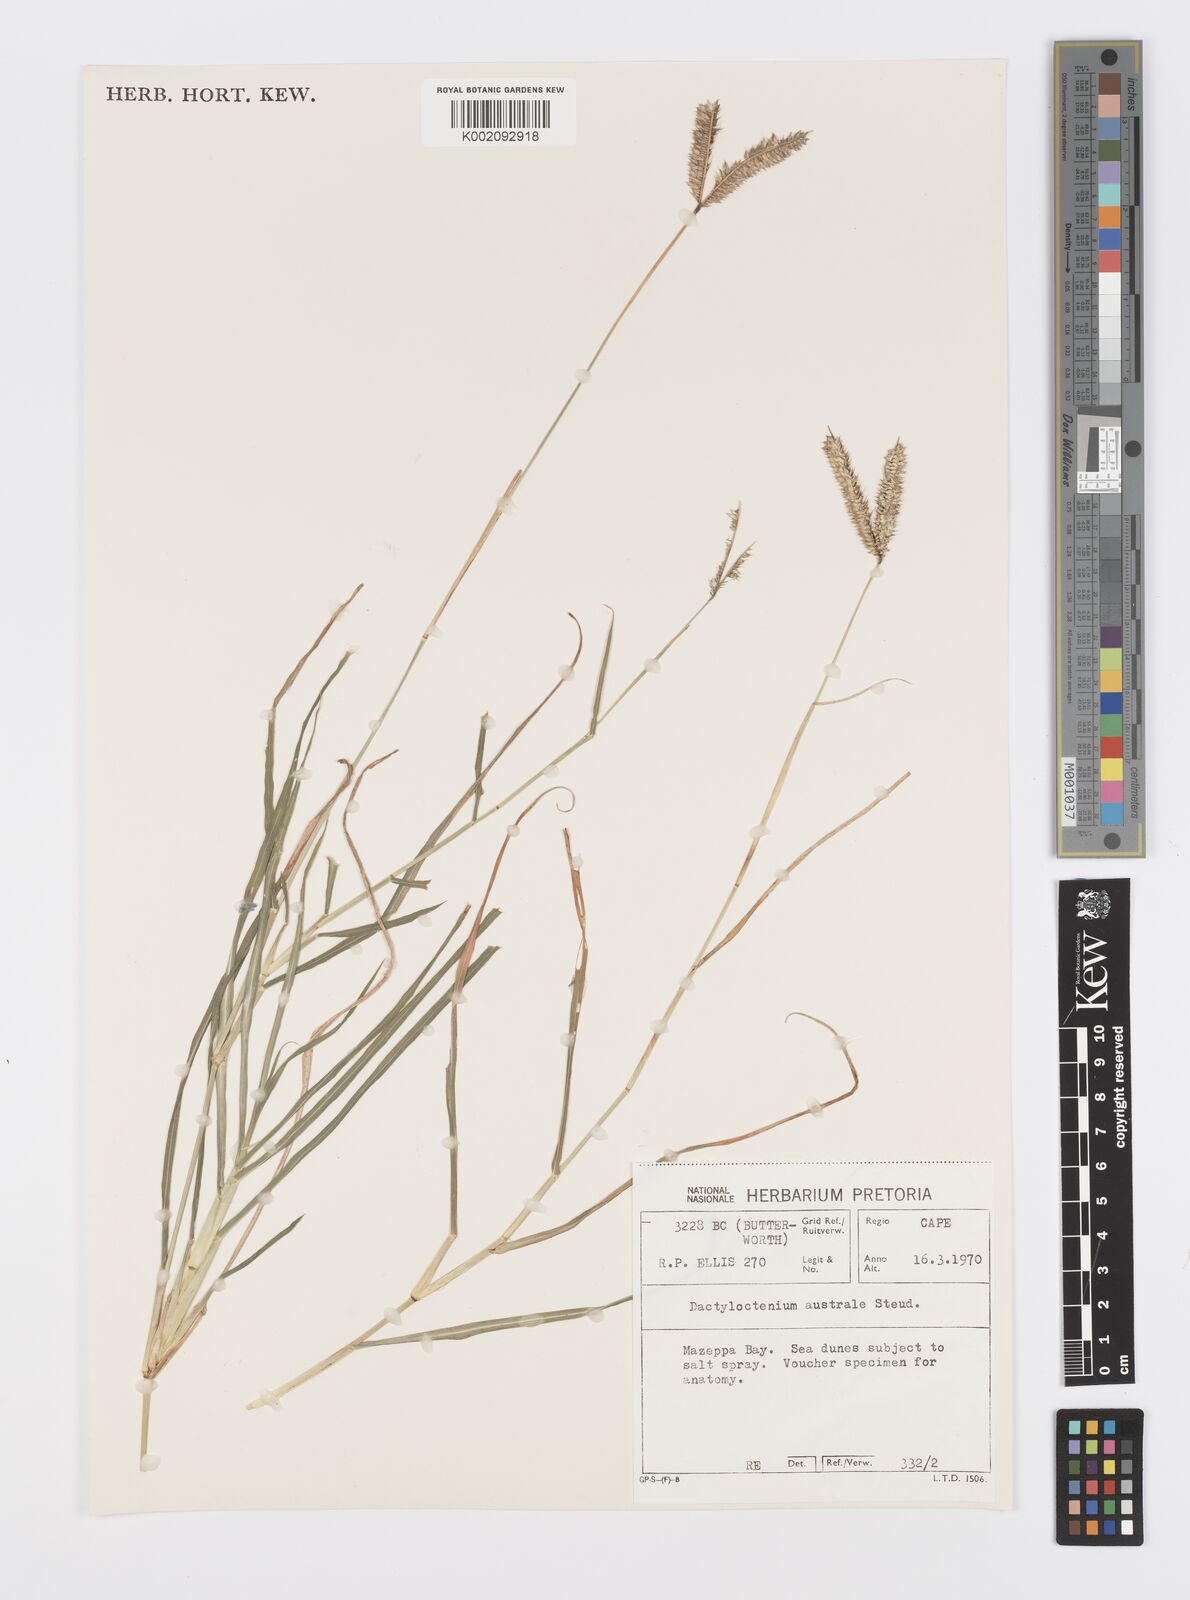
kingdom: Plantae
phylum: Tracheophyta
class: Liliopsida
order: Poales
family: Poaceae
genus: Dactyloctenium
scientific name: Dactyloctenium australe
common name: Durban grass
